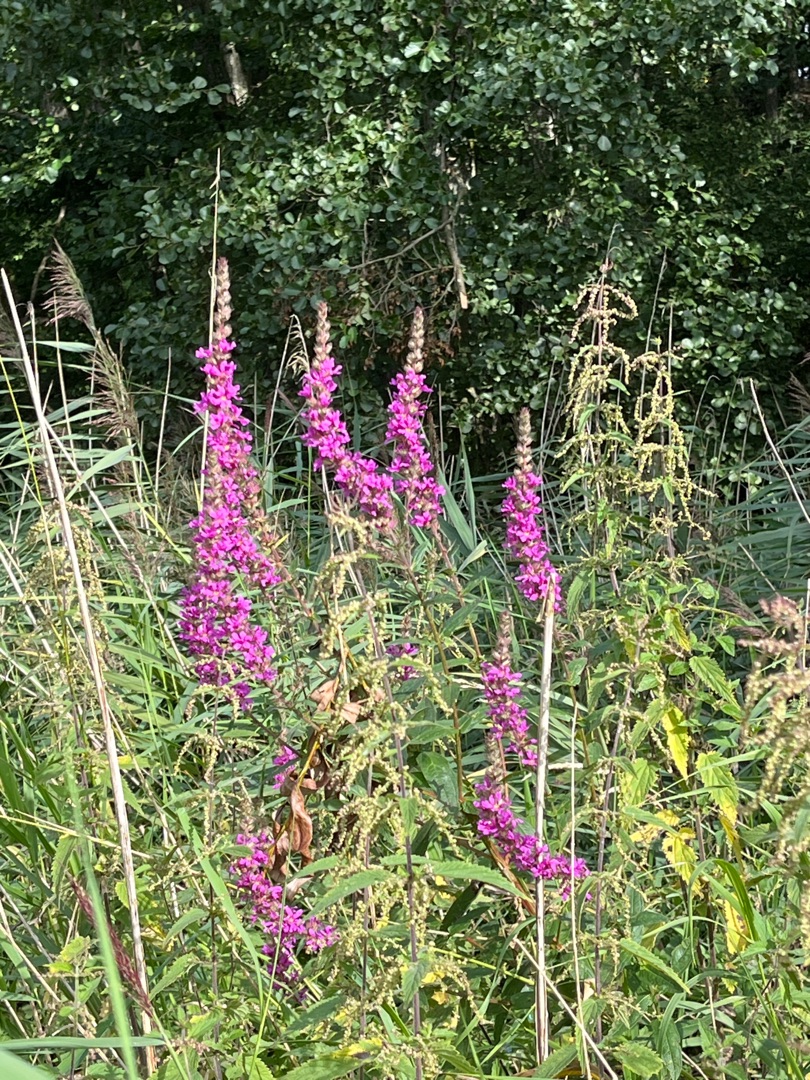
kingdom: Plantae
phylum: Tracheophyta
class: Magnoliopsida
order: Myrtales
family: Lythraceae
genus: Lythrum
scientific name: Lythrum salicaria
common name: Kattehale
